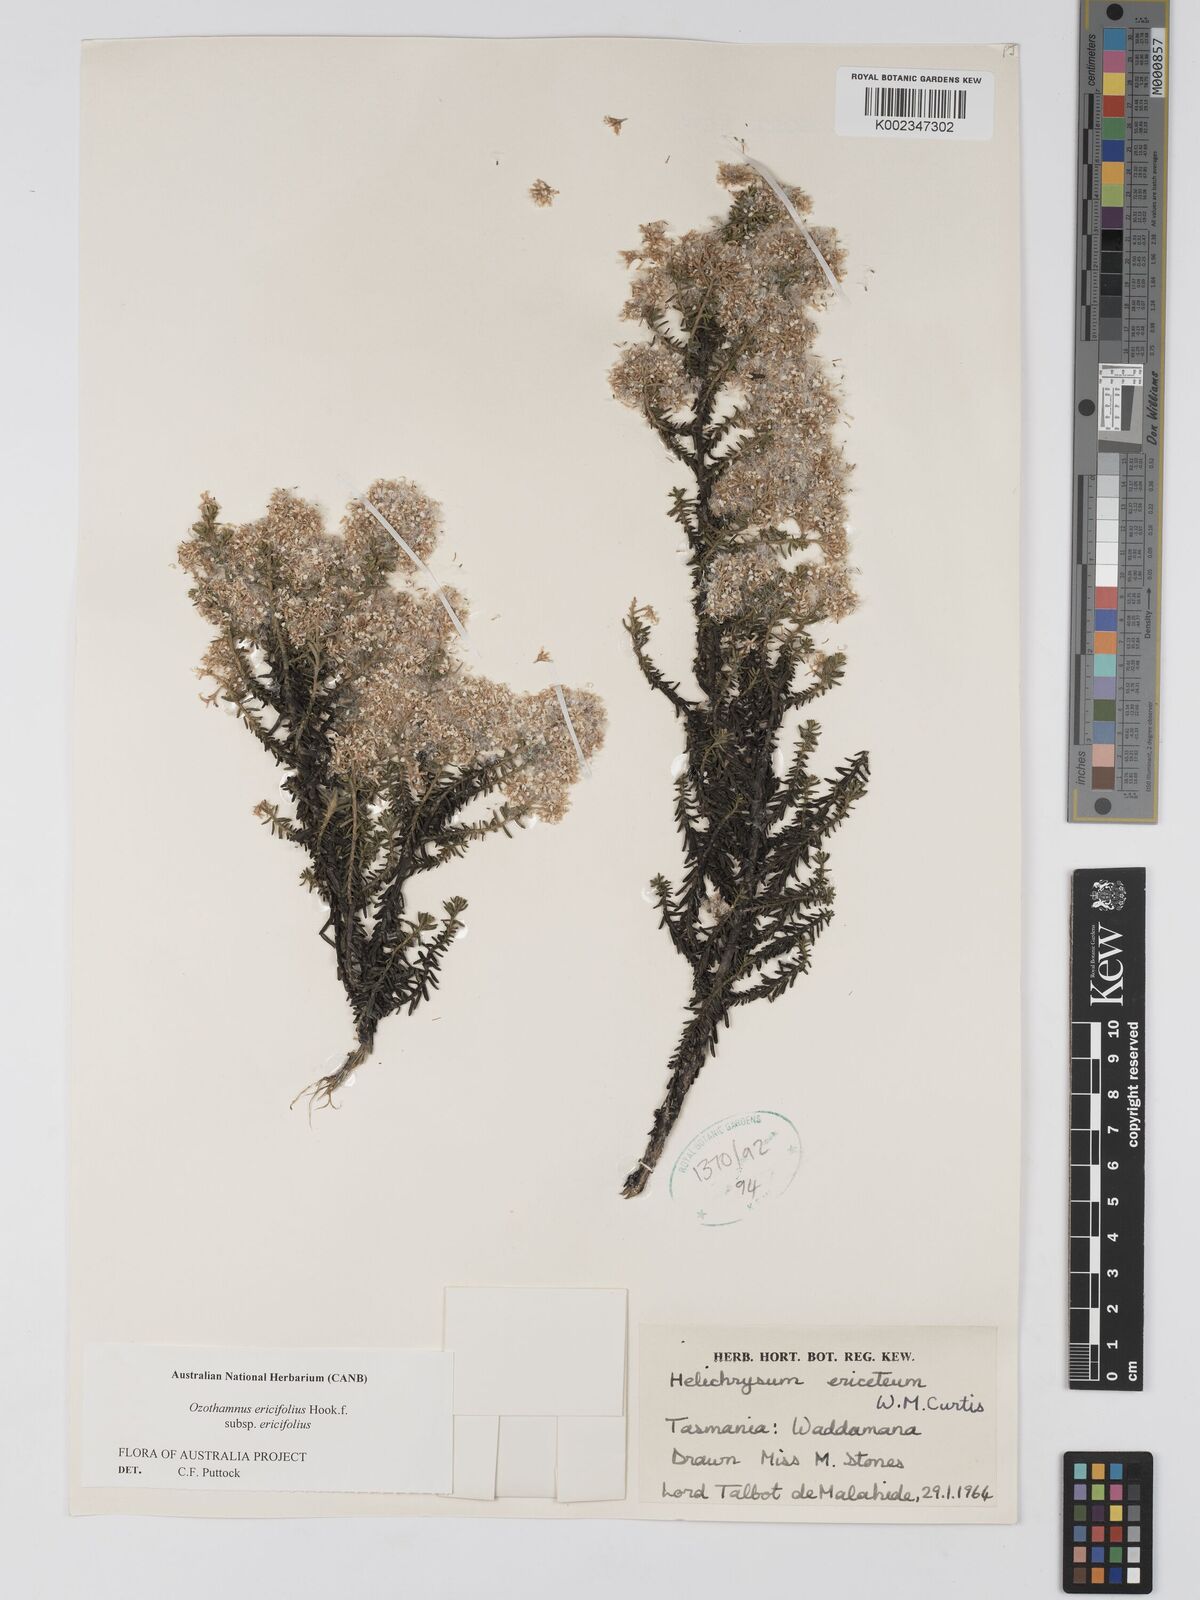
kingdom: Plantae
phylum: Tracheophyta
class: Magnoliopsida
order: Asterales
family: Asteraceae
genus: Ozothamnus
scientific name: Ozothamnus ericifolius
